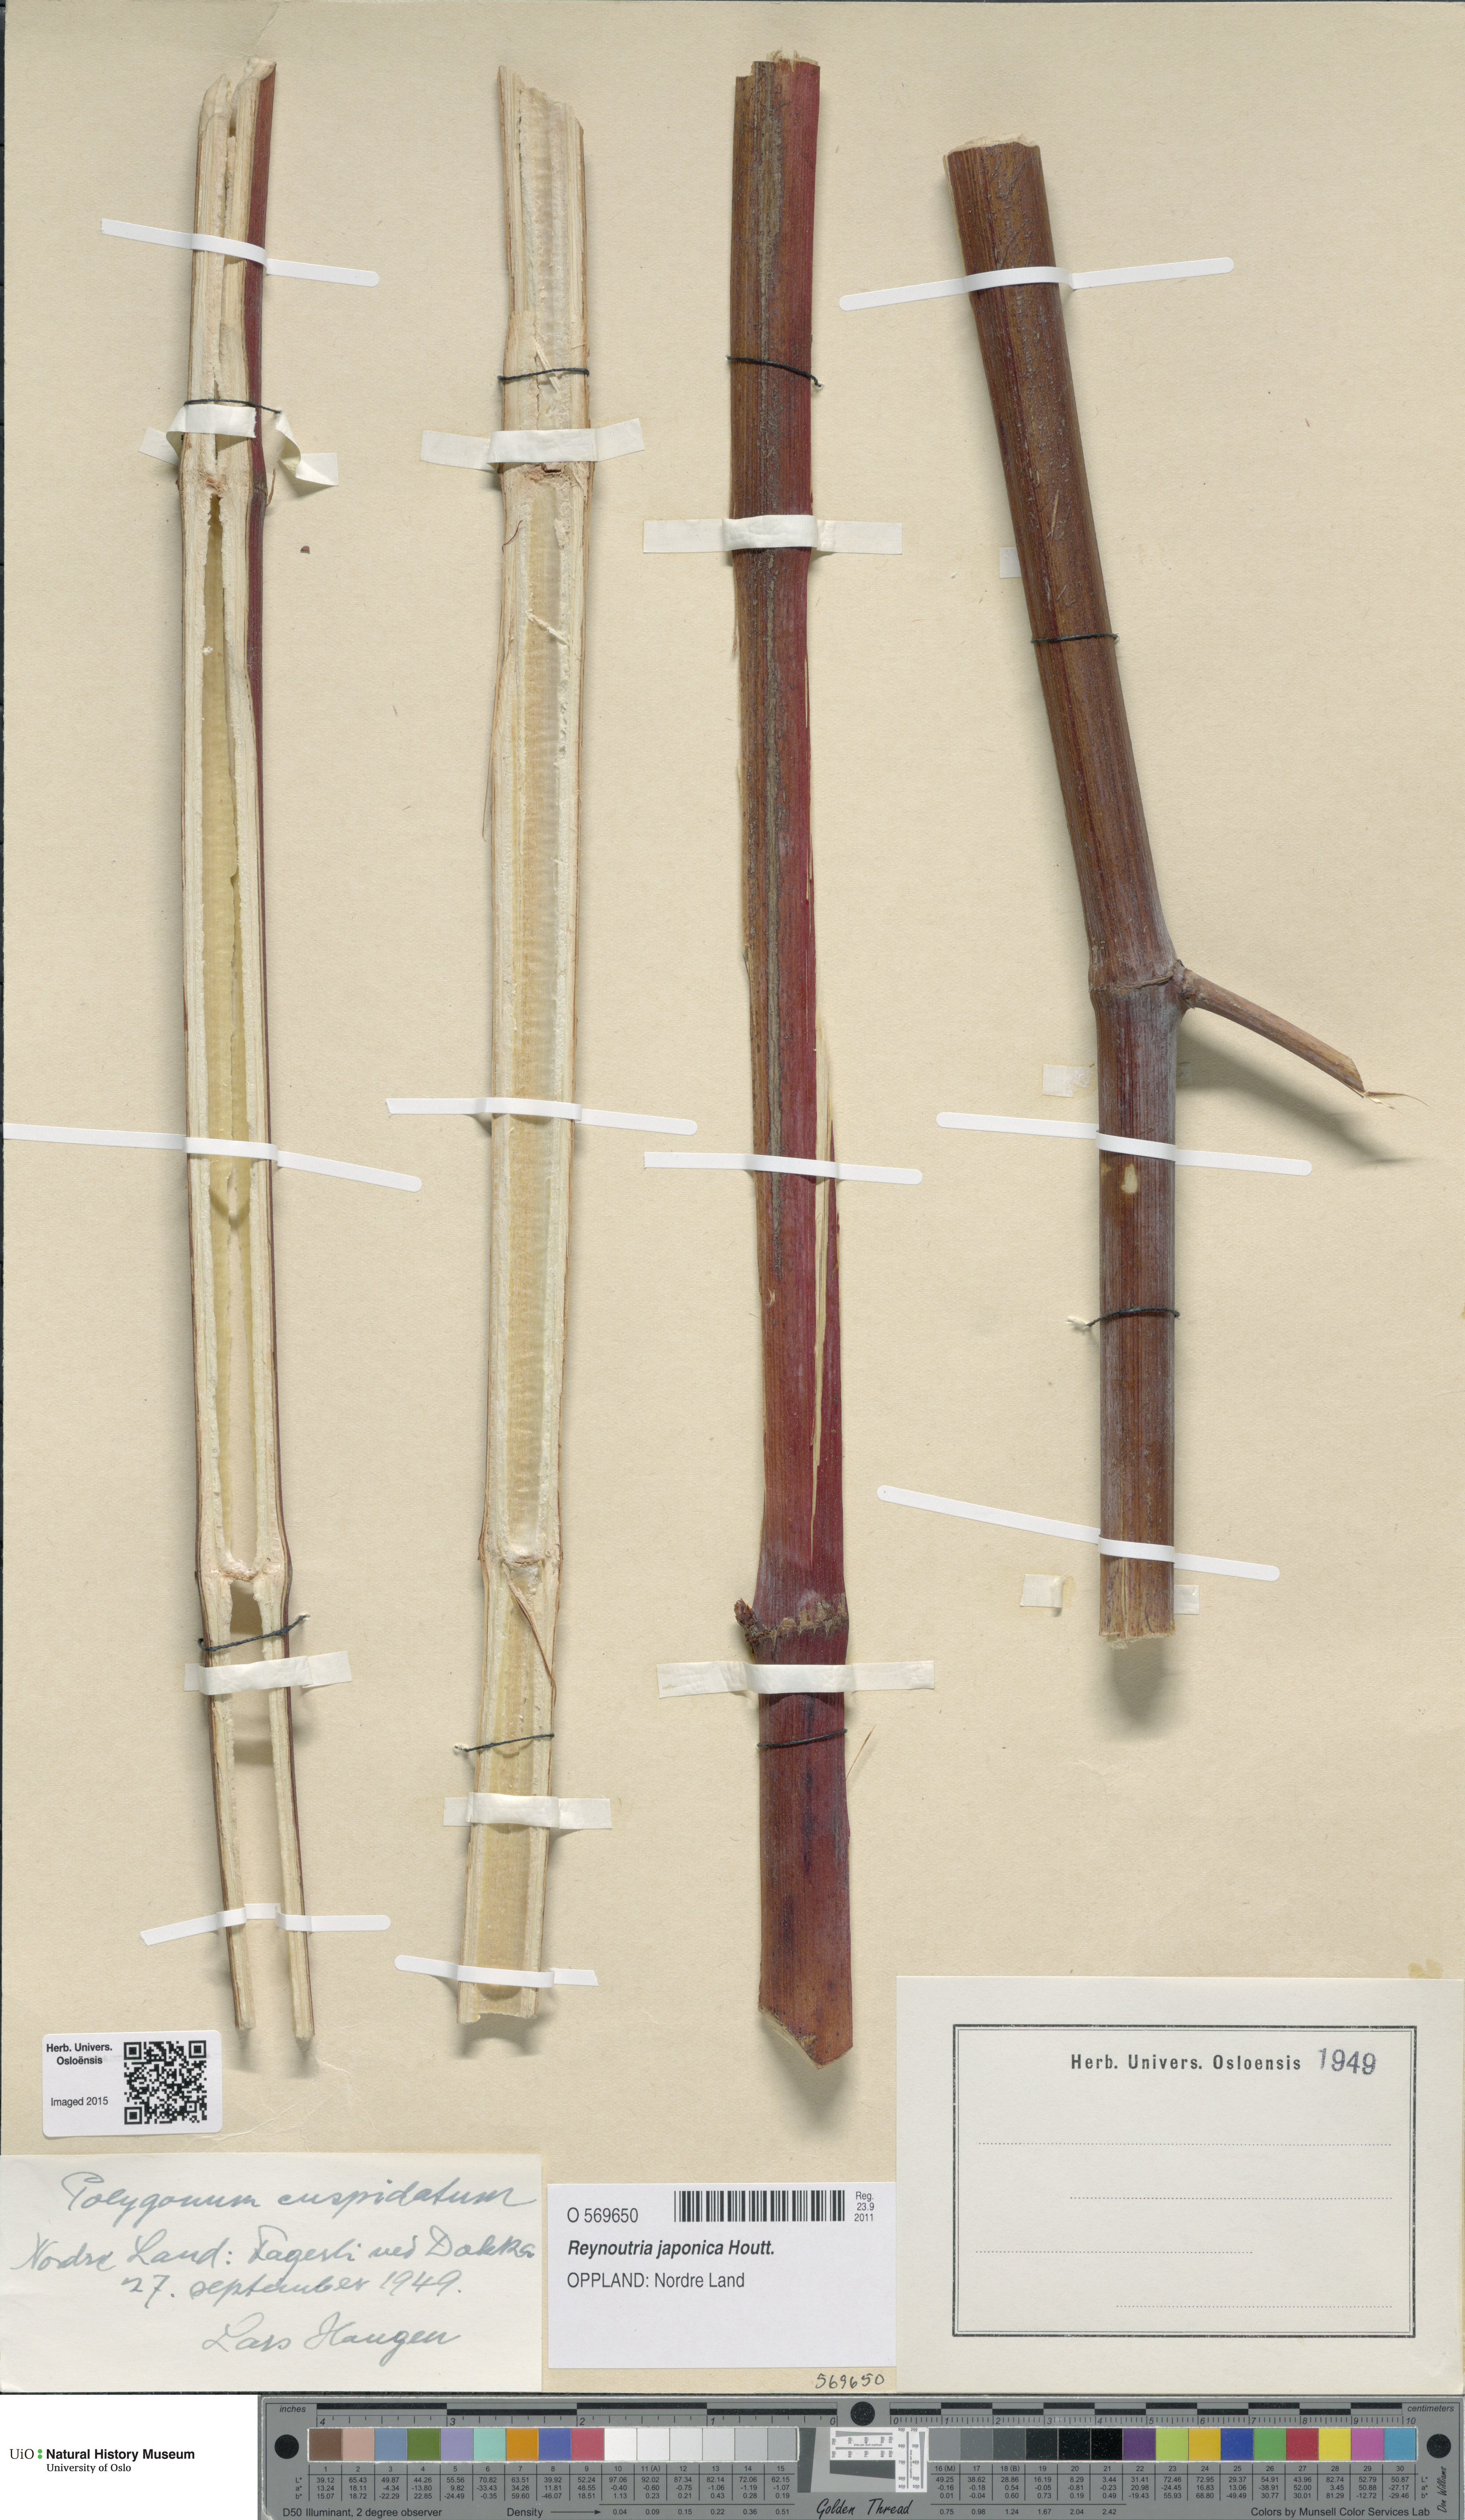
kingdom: Plantae
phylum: Tracheophyta
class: Magnoliopsida
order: Caryophyllales
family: Polygonaceae
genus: Reynoutria
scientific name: Reynoutria japonica
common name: Japanese knotweed
